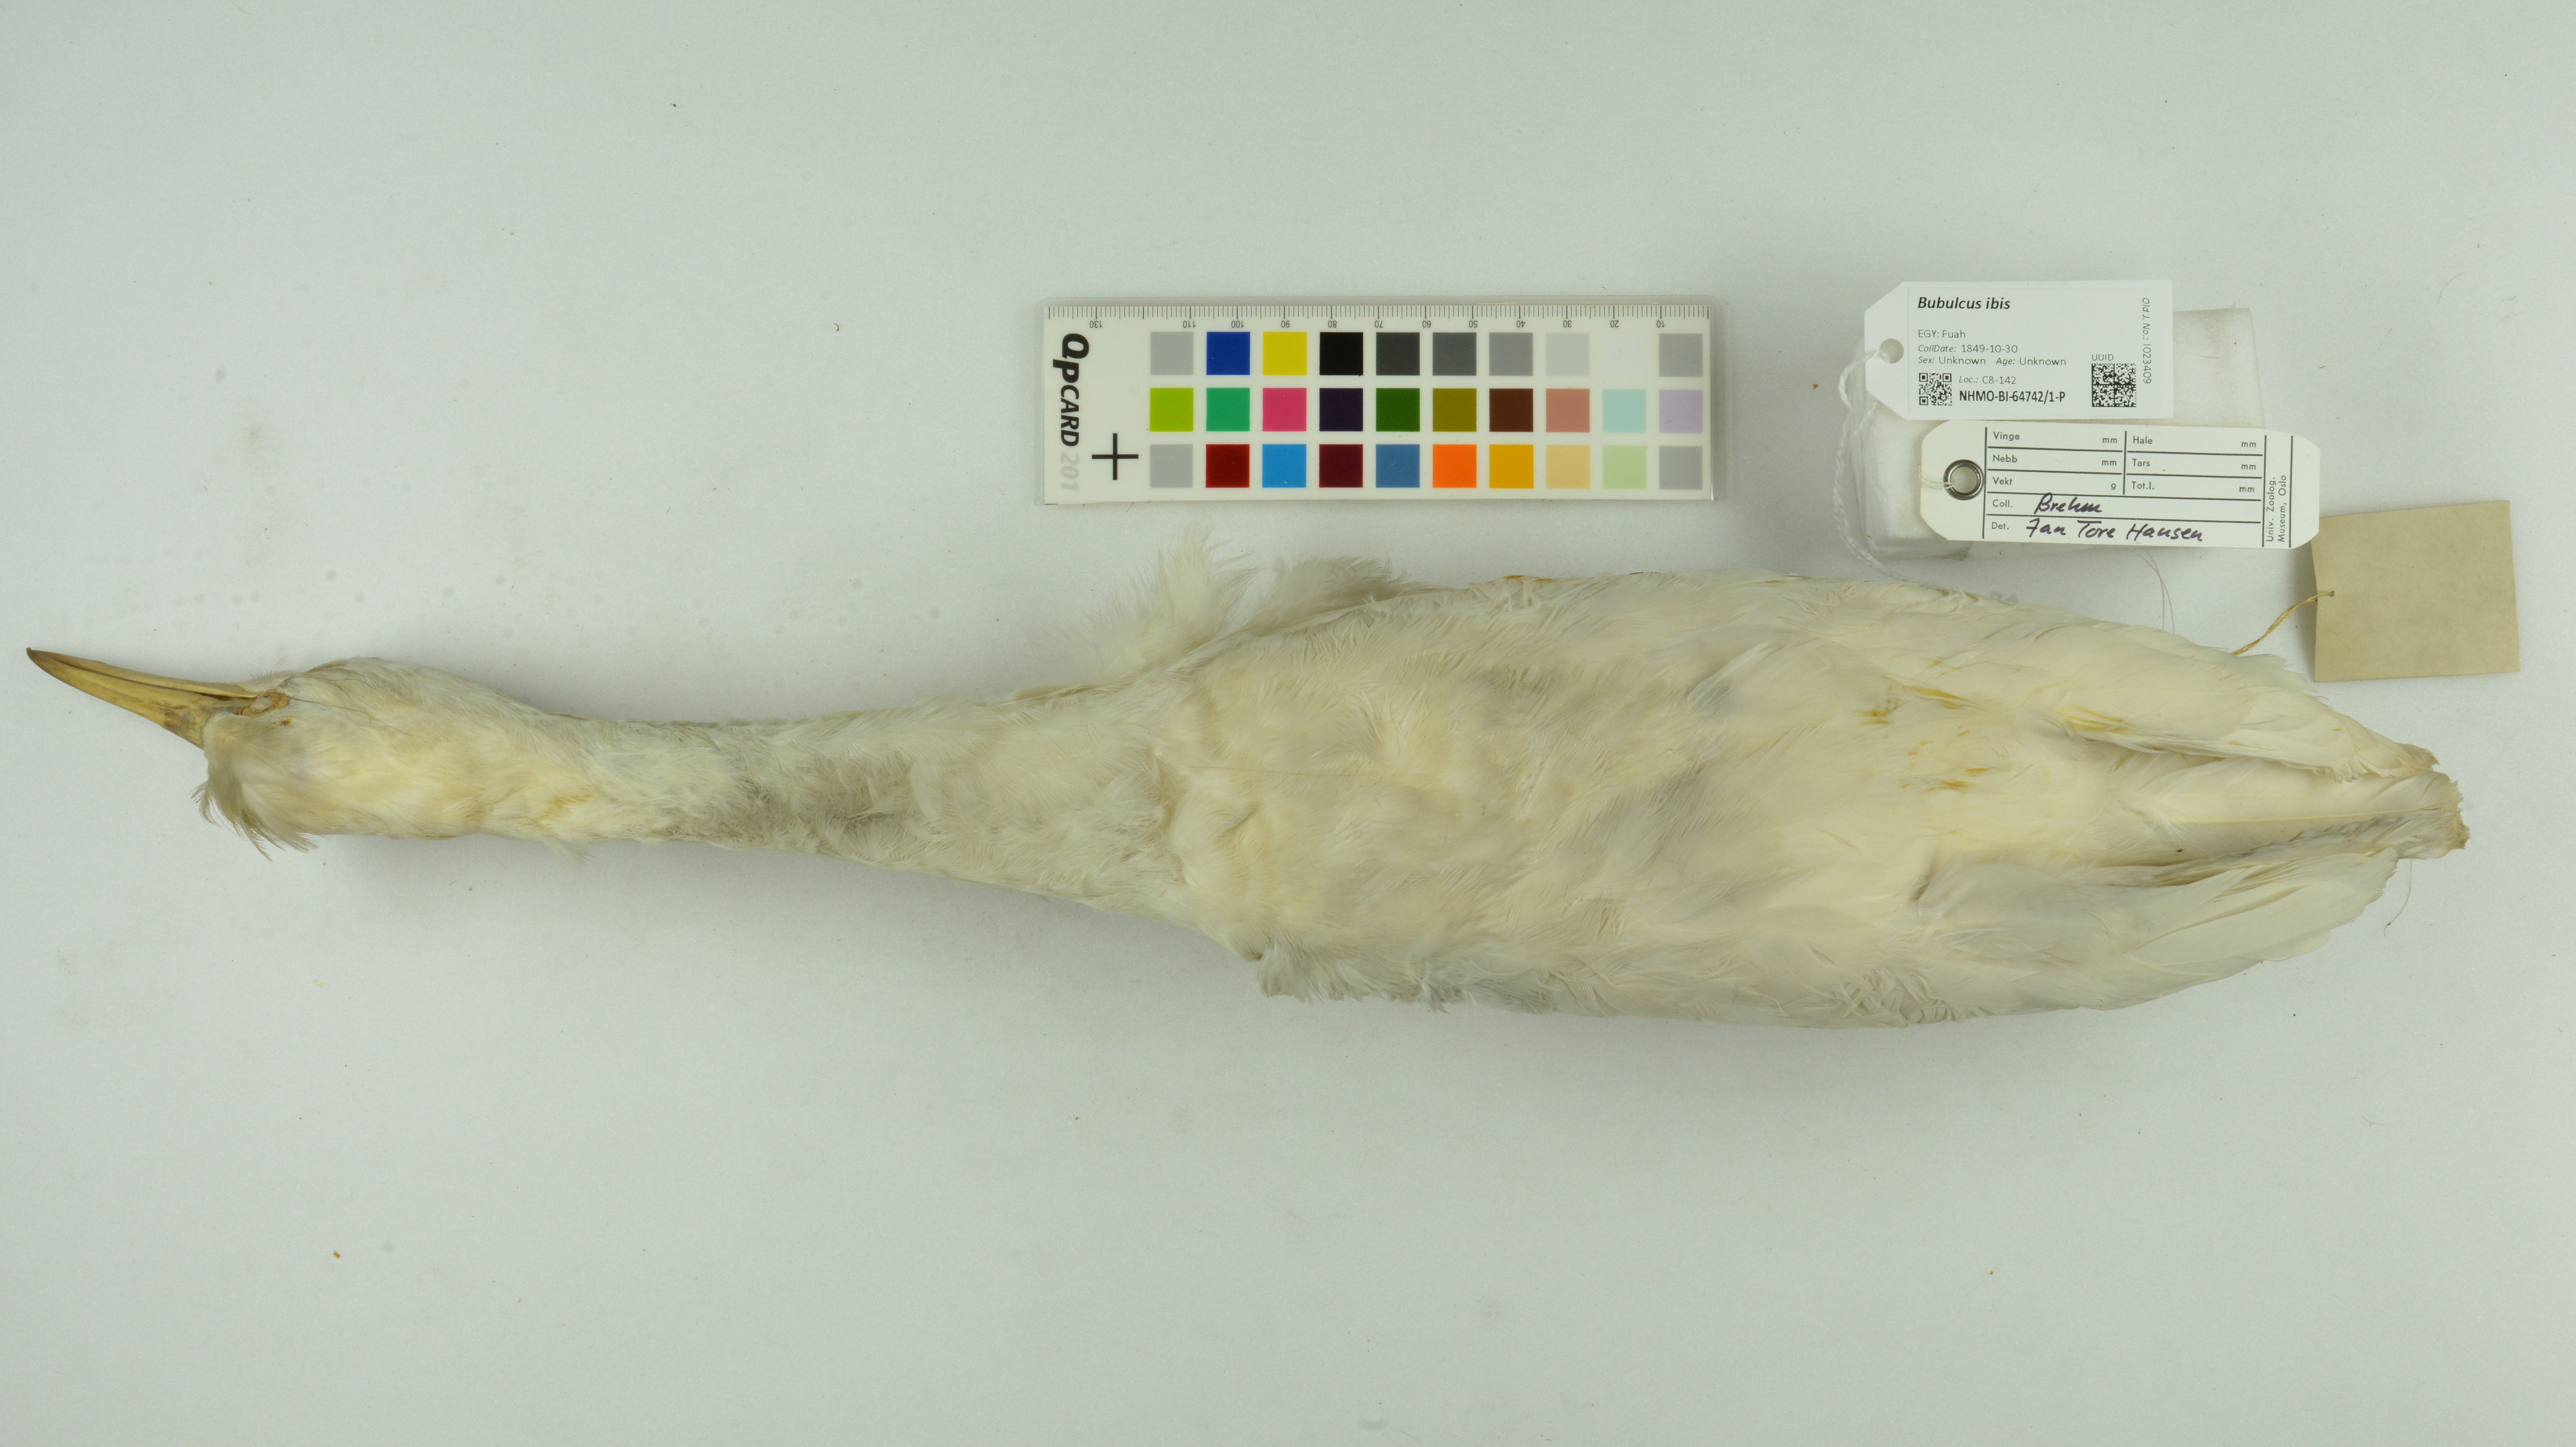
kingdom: Animalia
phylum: Chordata
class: Aves
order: Pelecaniformes
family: Ardeidae
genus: Bubulcus
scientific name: Bubulcus ibis
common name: Cattle egret
